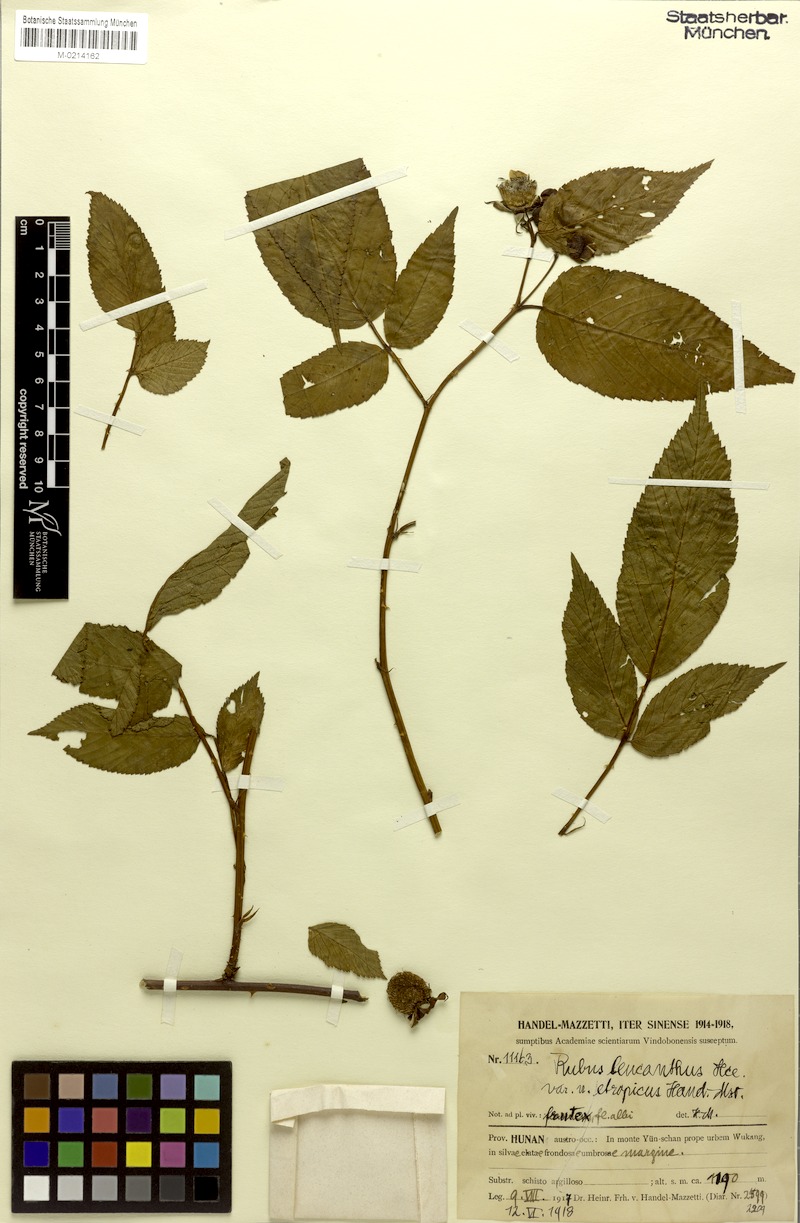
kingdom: Plantae
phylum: Tracheophyta
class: Magnoliopsida
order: Rosales
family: Rosaceae
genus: Rubus
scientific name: Rubus columellaris
